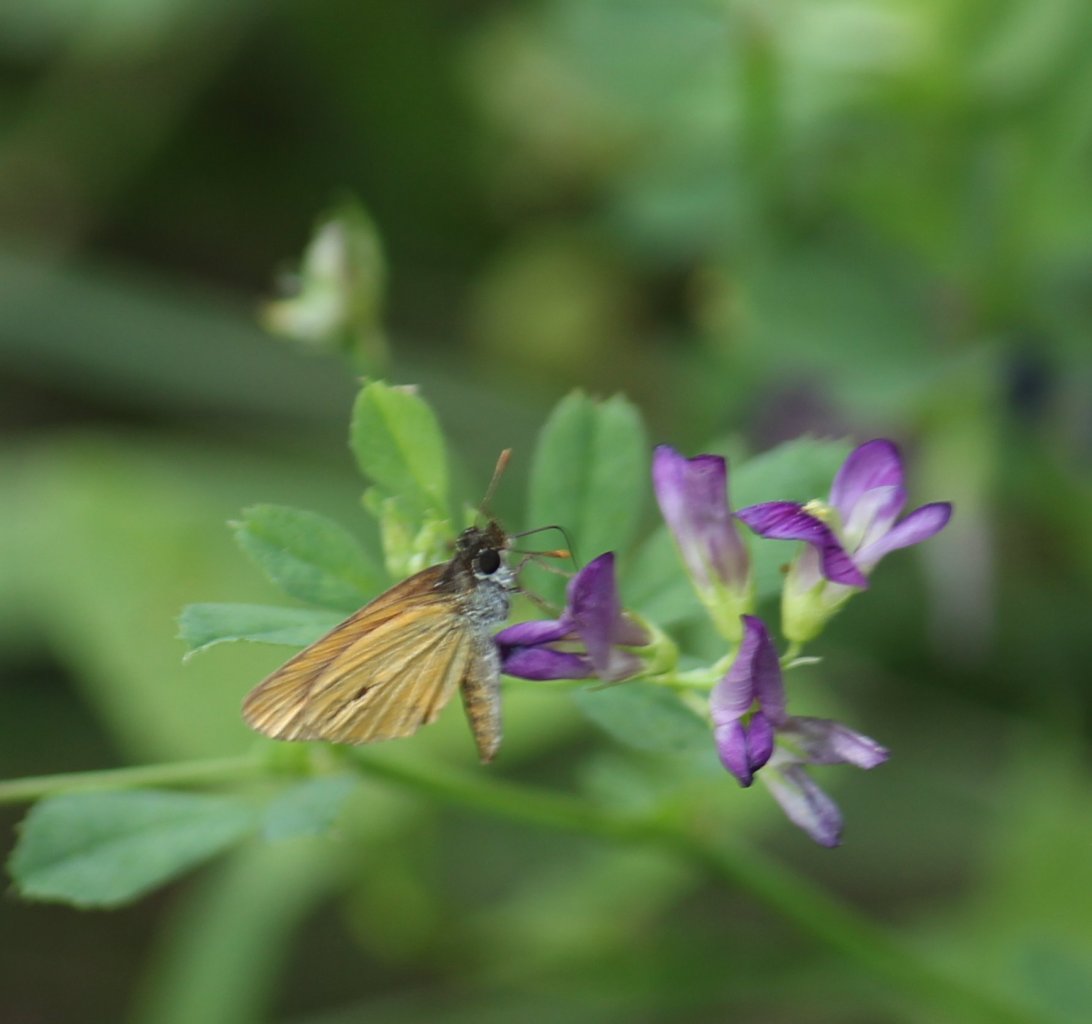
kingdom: Animalia
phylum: Arthropoda
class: Insecta
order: Lepidoptera
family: Hesperiidae
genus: Ancyloxypha
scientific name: Ancyloxypha numitor
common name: Least Skipper
